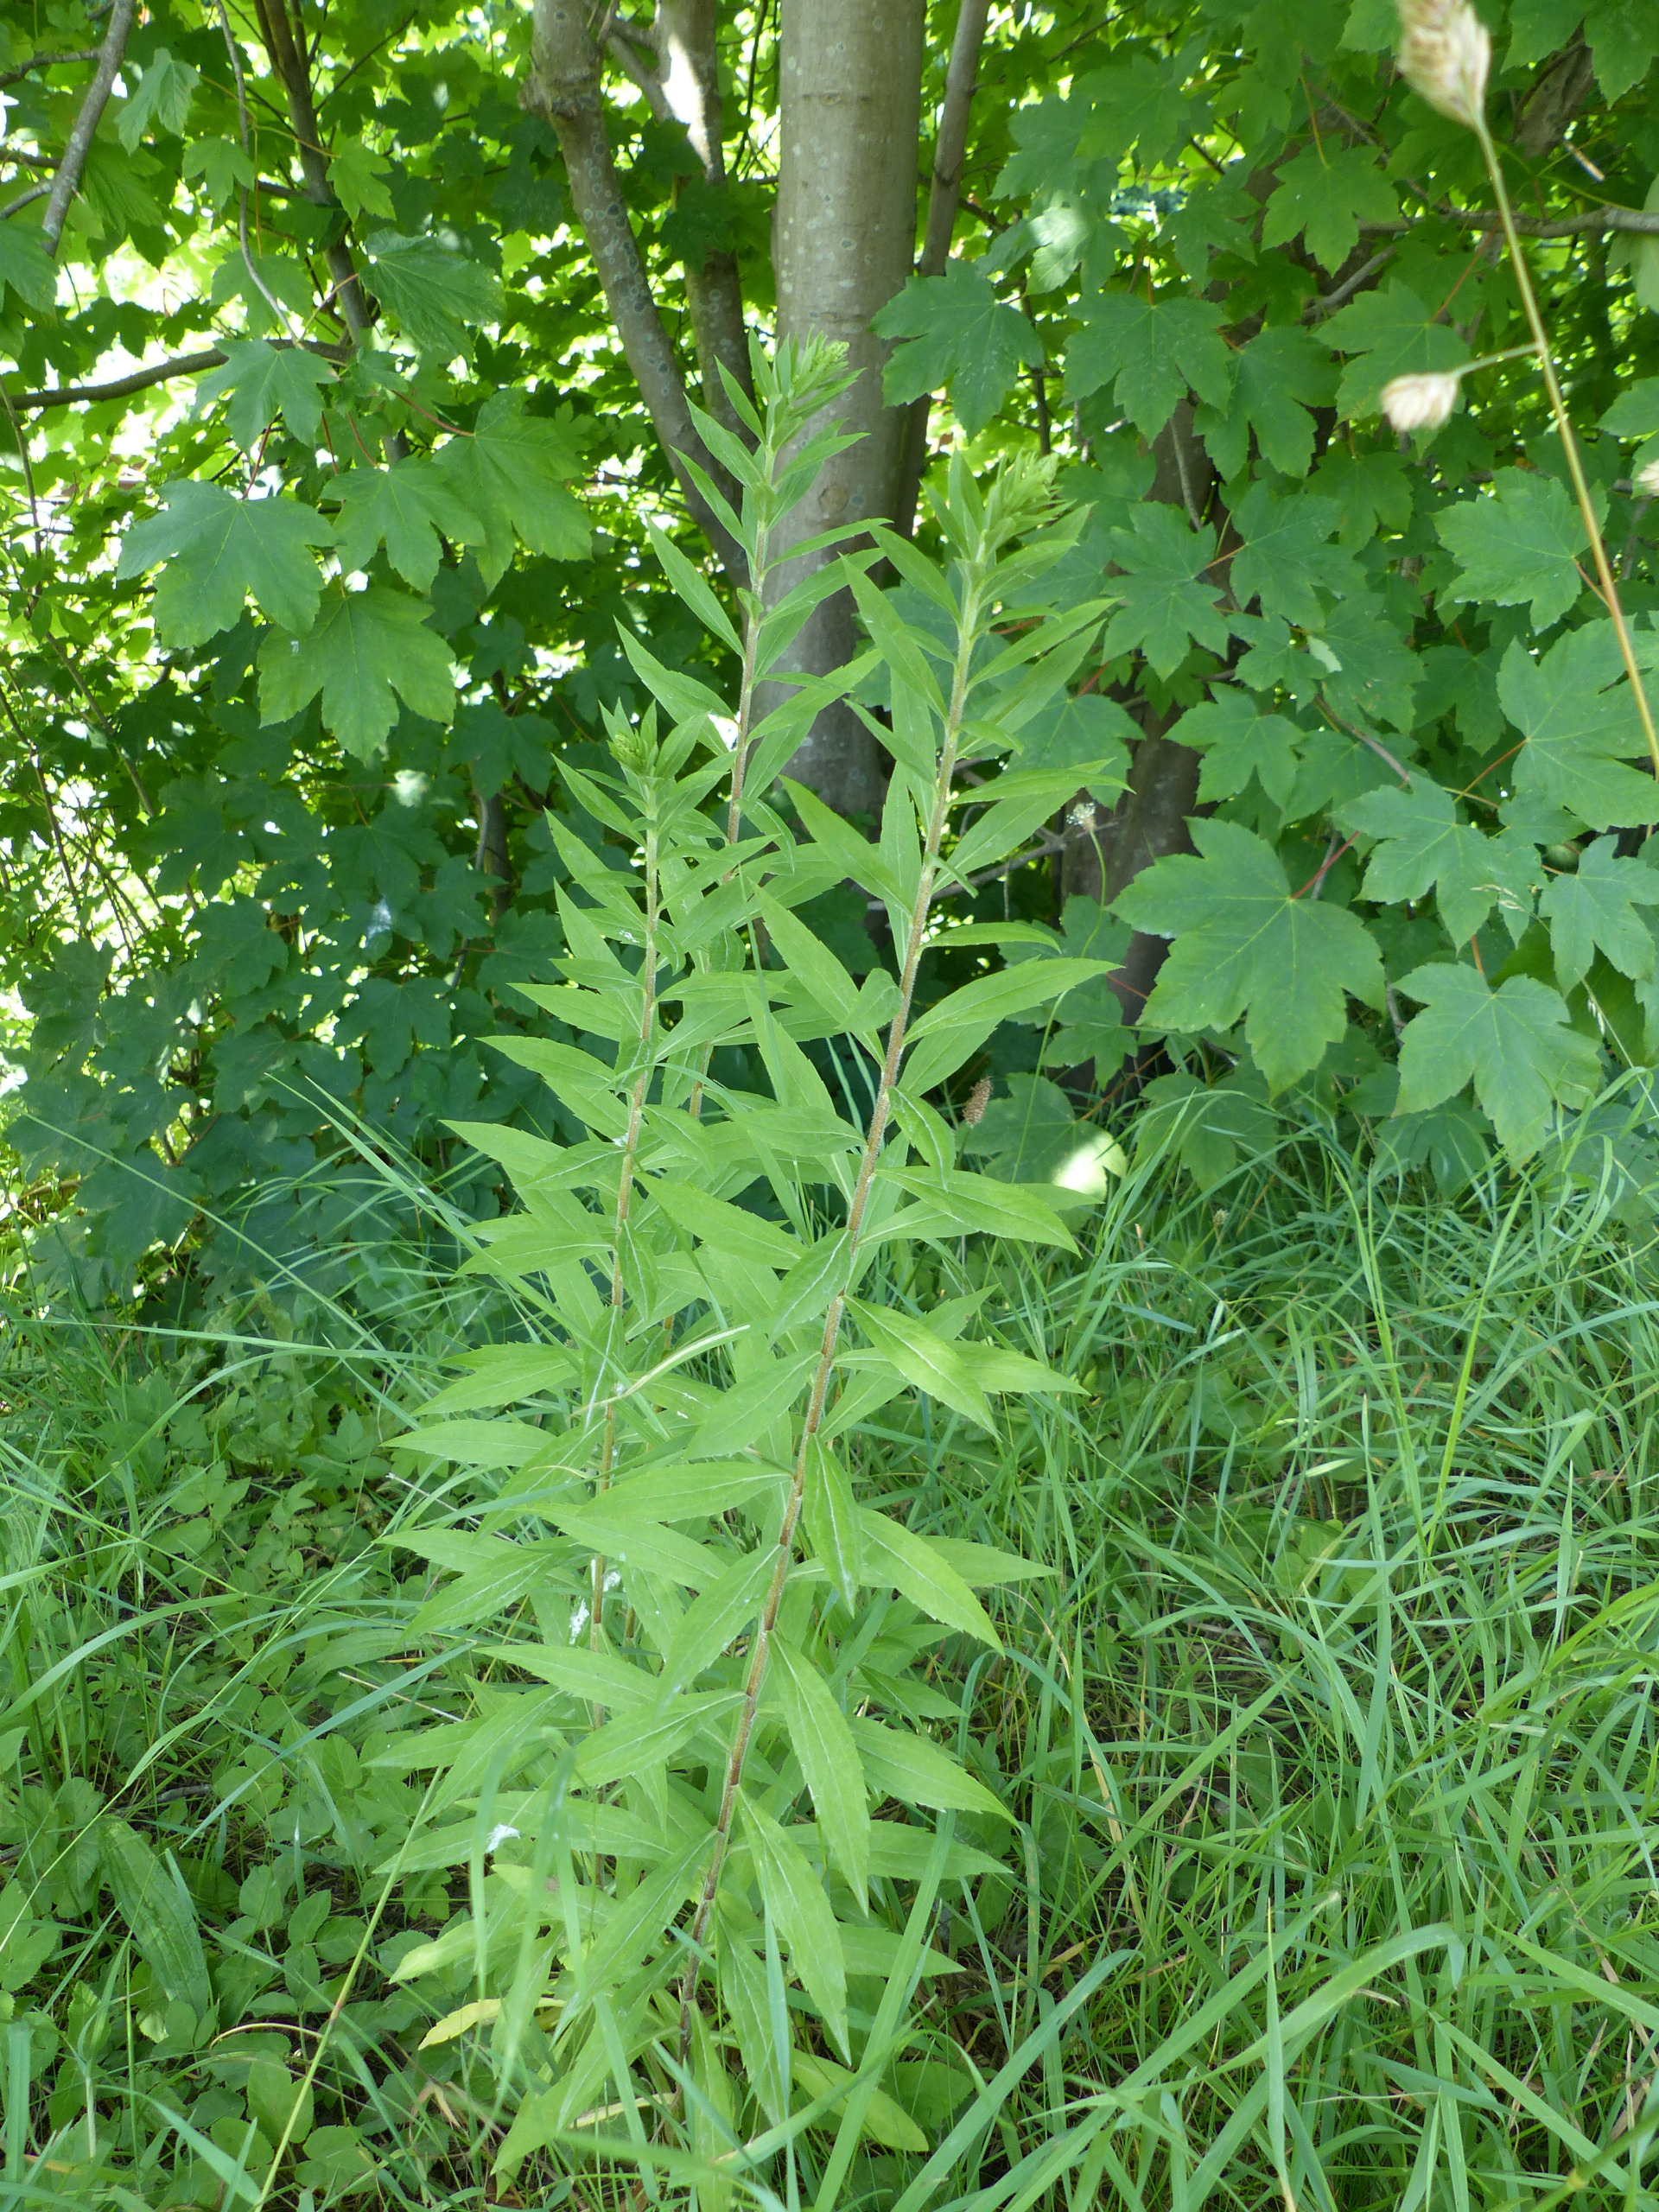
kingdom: Plantae
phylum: Tracheophyta
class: Magnoliopsida
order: Asterales
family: Asteraceae
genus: Solidago
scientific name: Solidago canadensis
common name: Kanadisk gyldenris
